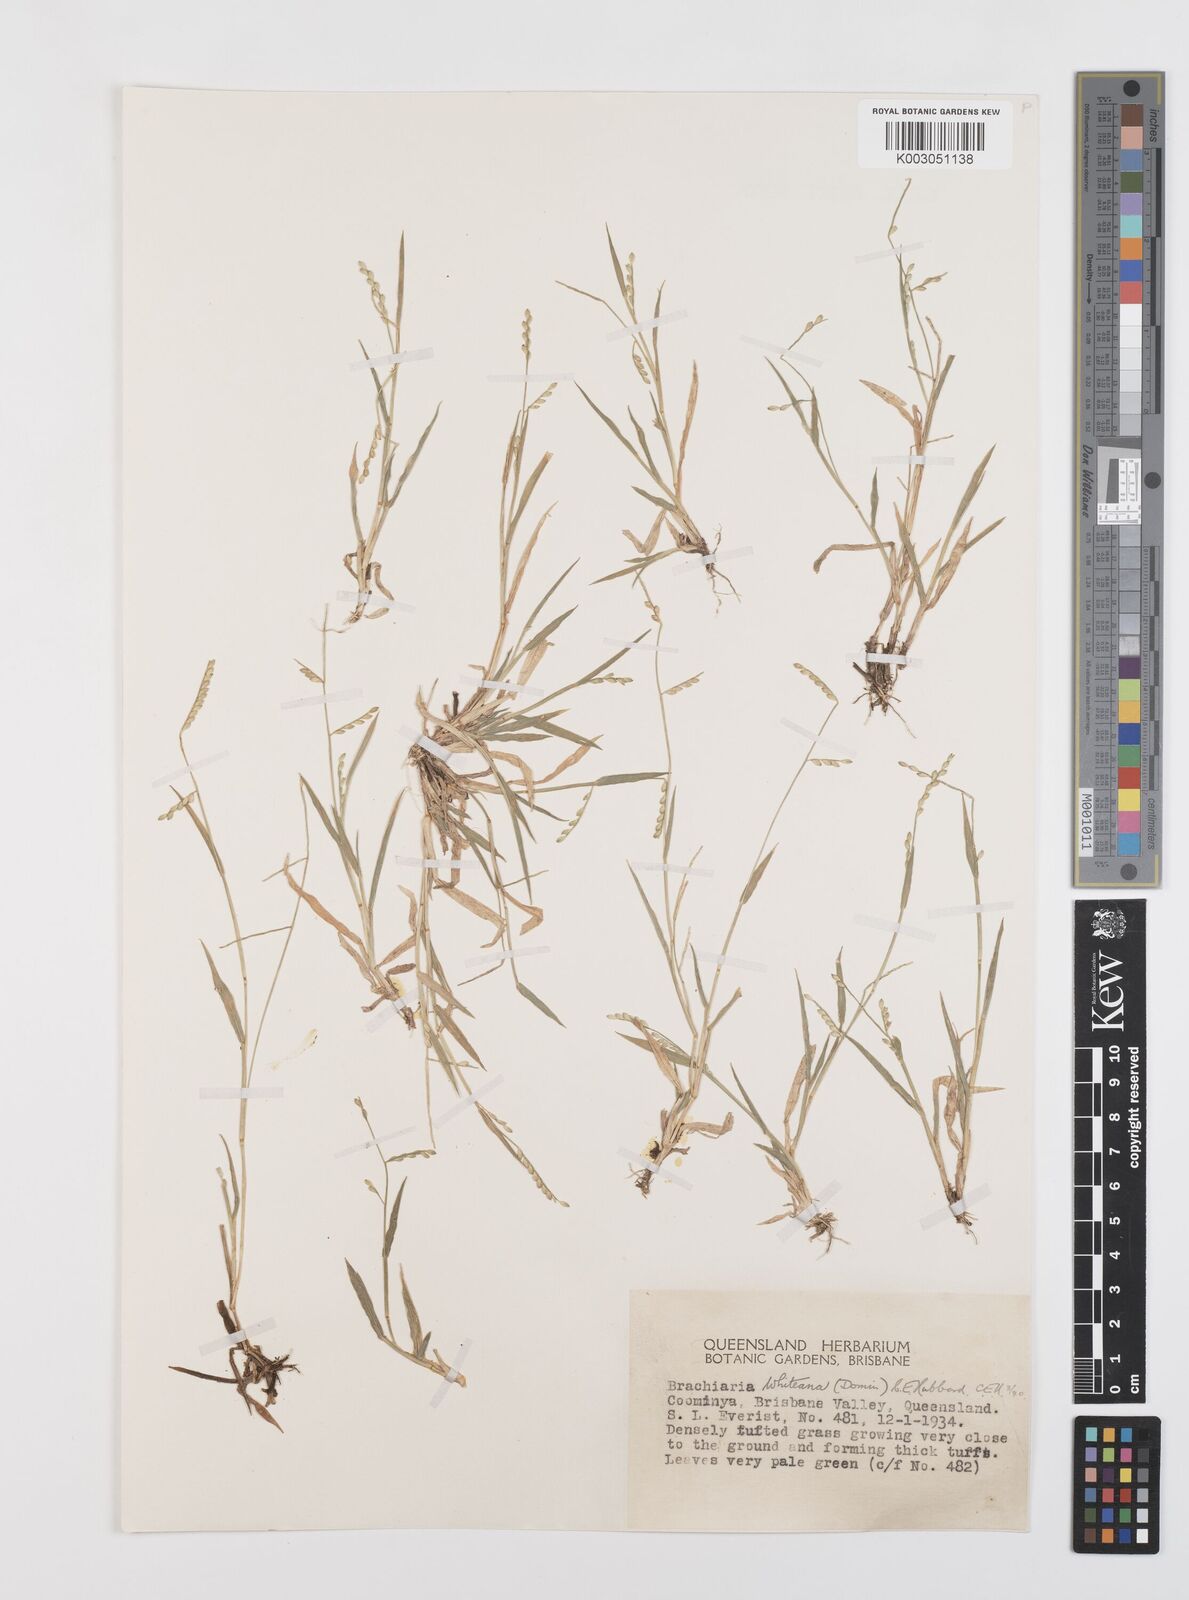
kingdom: Plantae
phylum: Tracheophyta
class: Liliopsida
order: Poales
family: Poaceae
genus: Urochloa
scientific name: Urochloa whiteana
